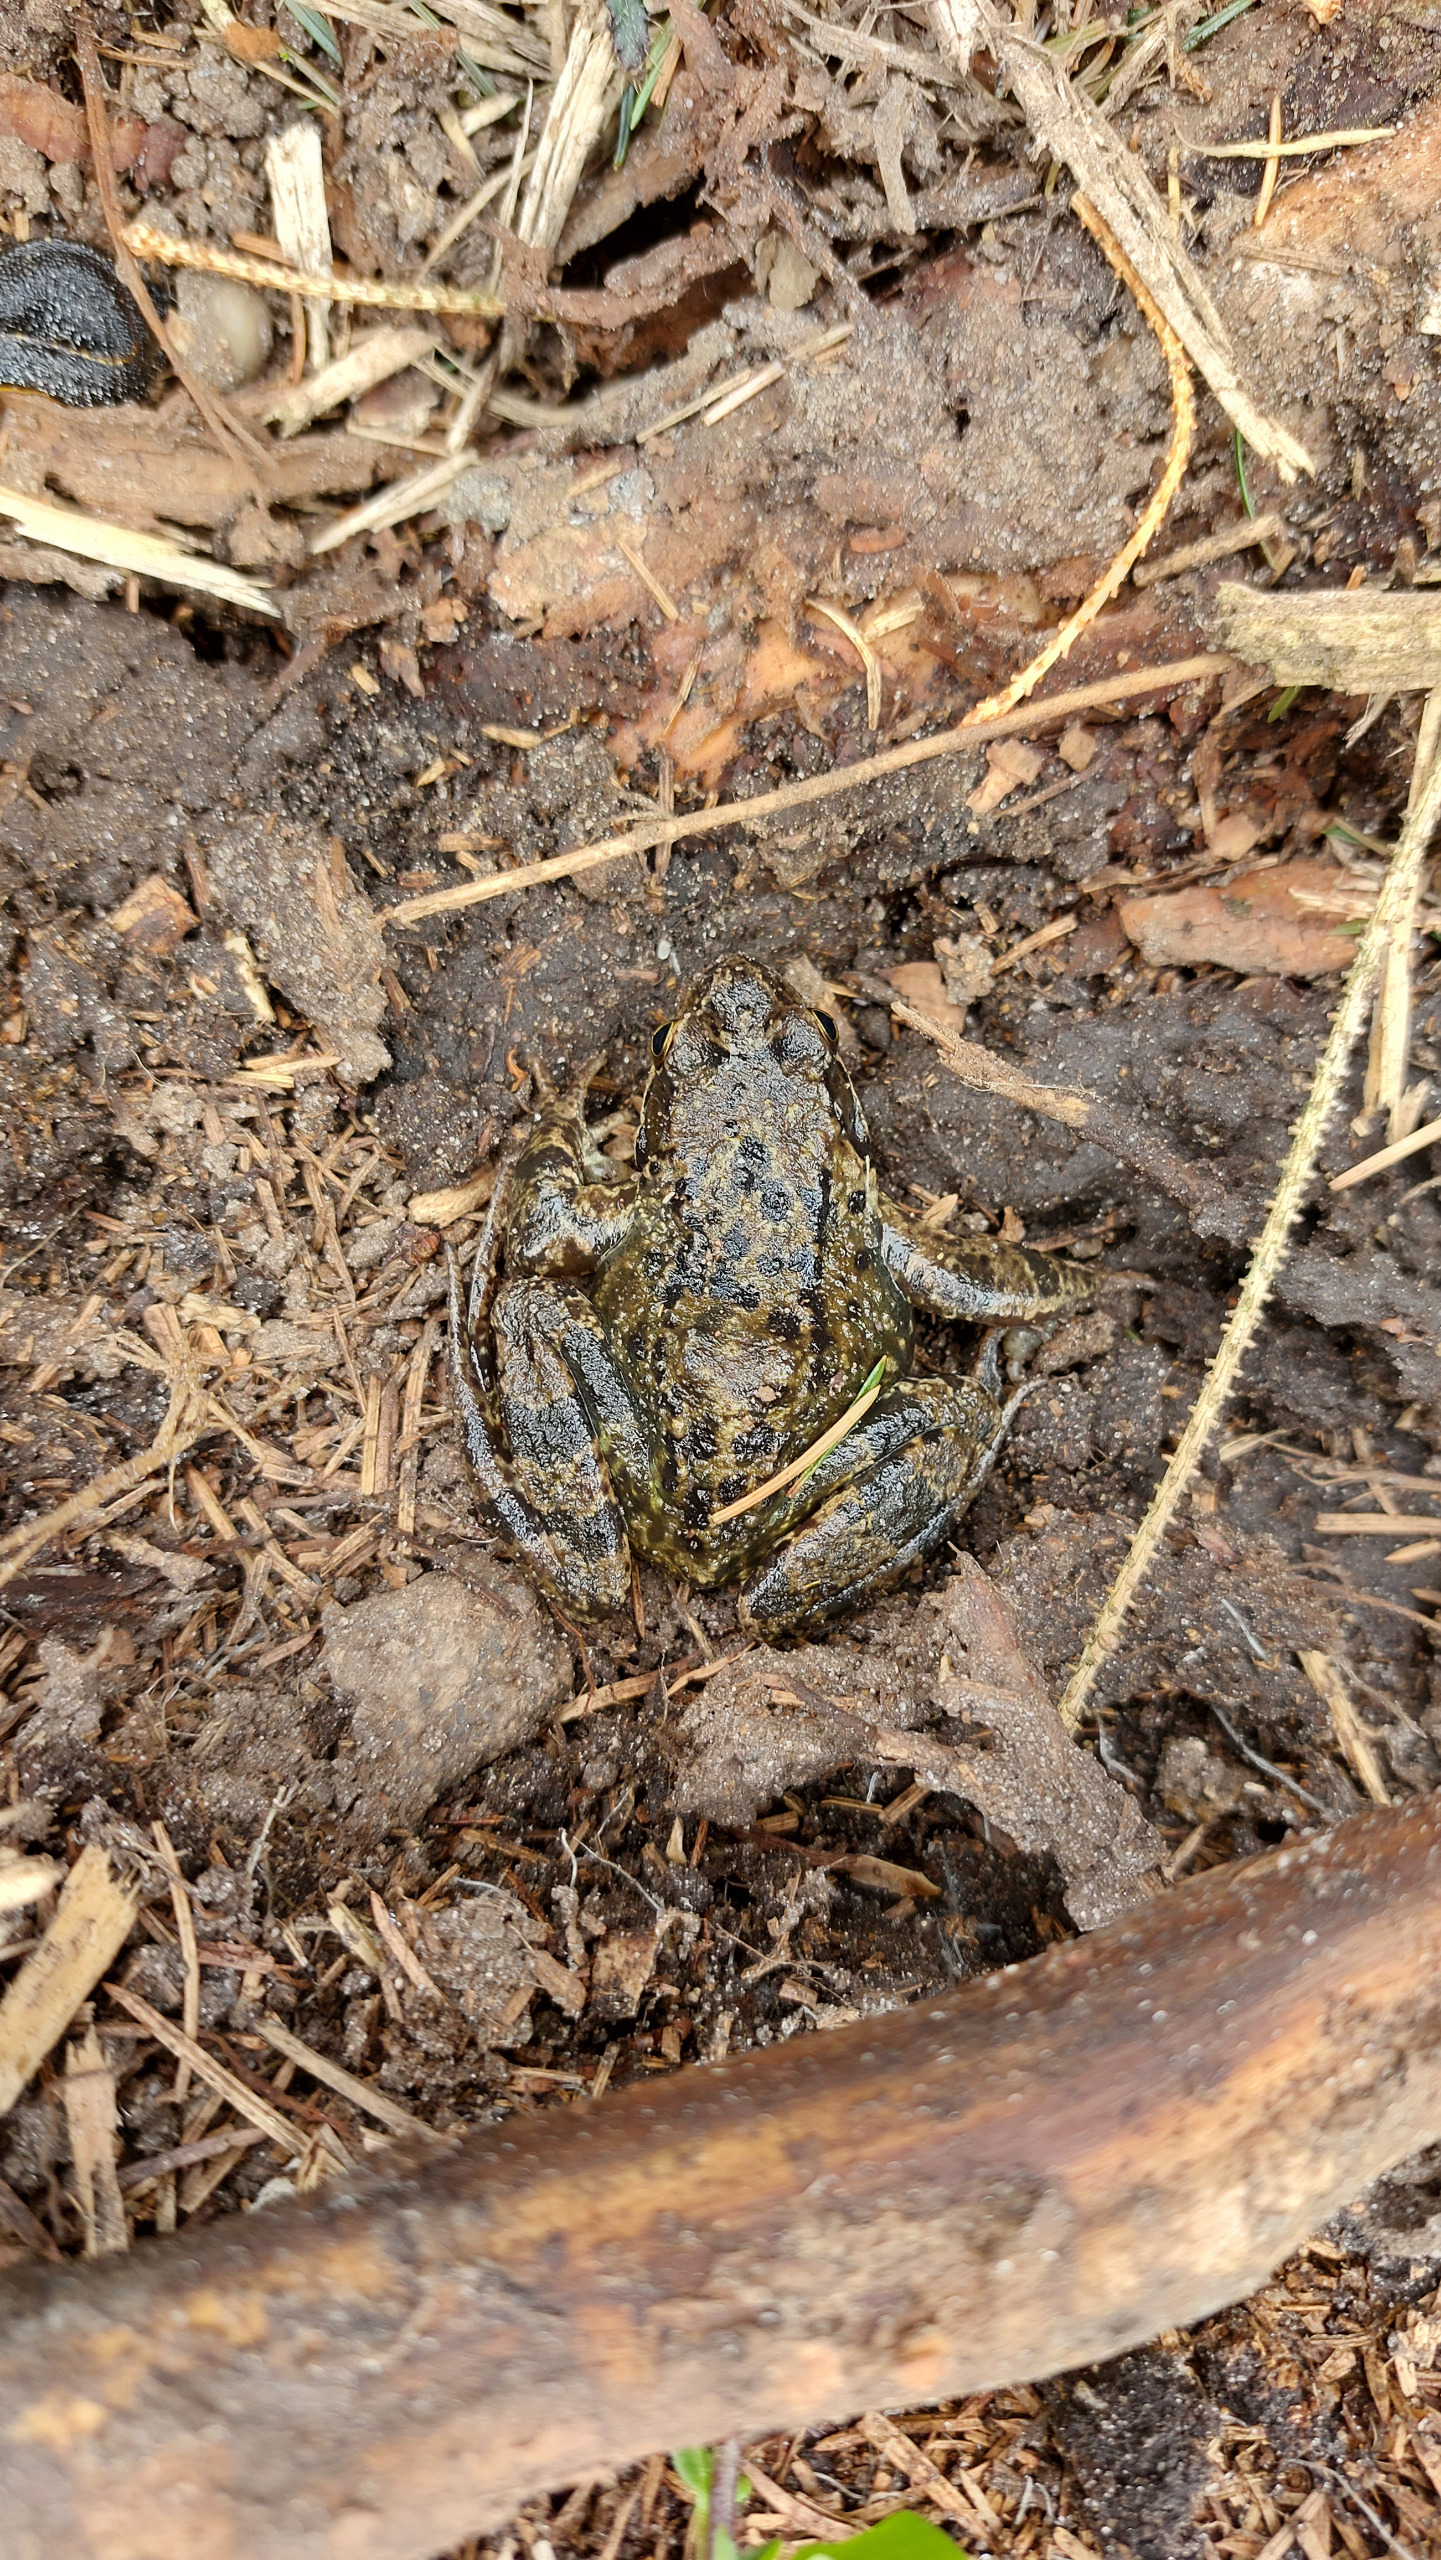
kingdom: Animalia
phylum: Chordata
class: Amphibia
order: Anura
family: Ranidae
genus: Rana
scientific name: Rana temporaria
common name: Butsnudet frø
